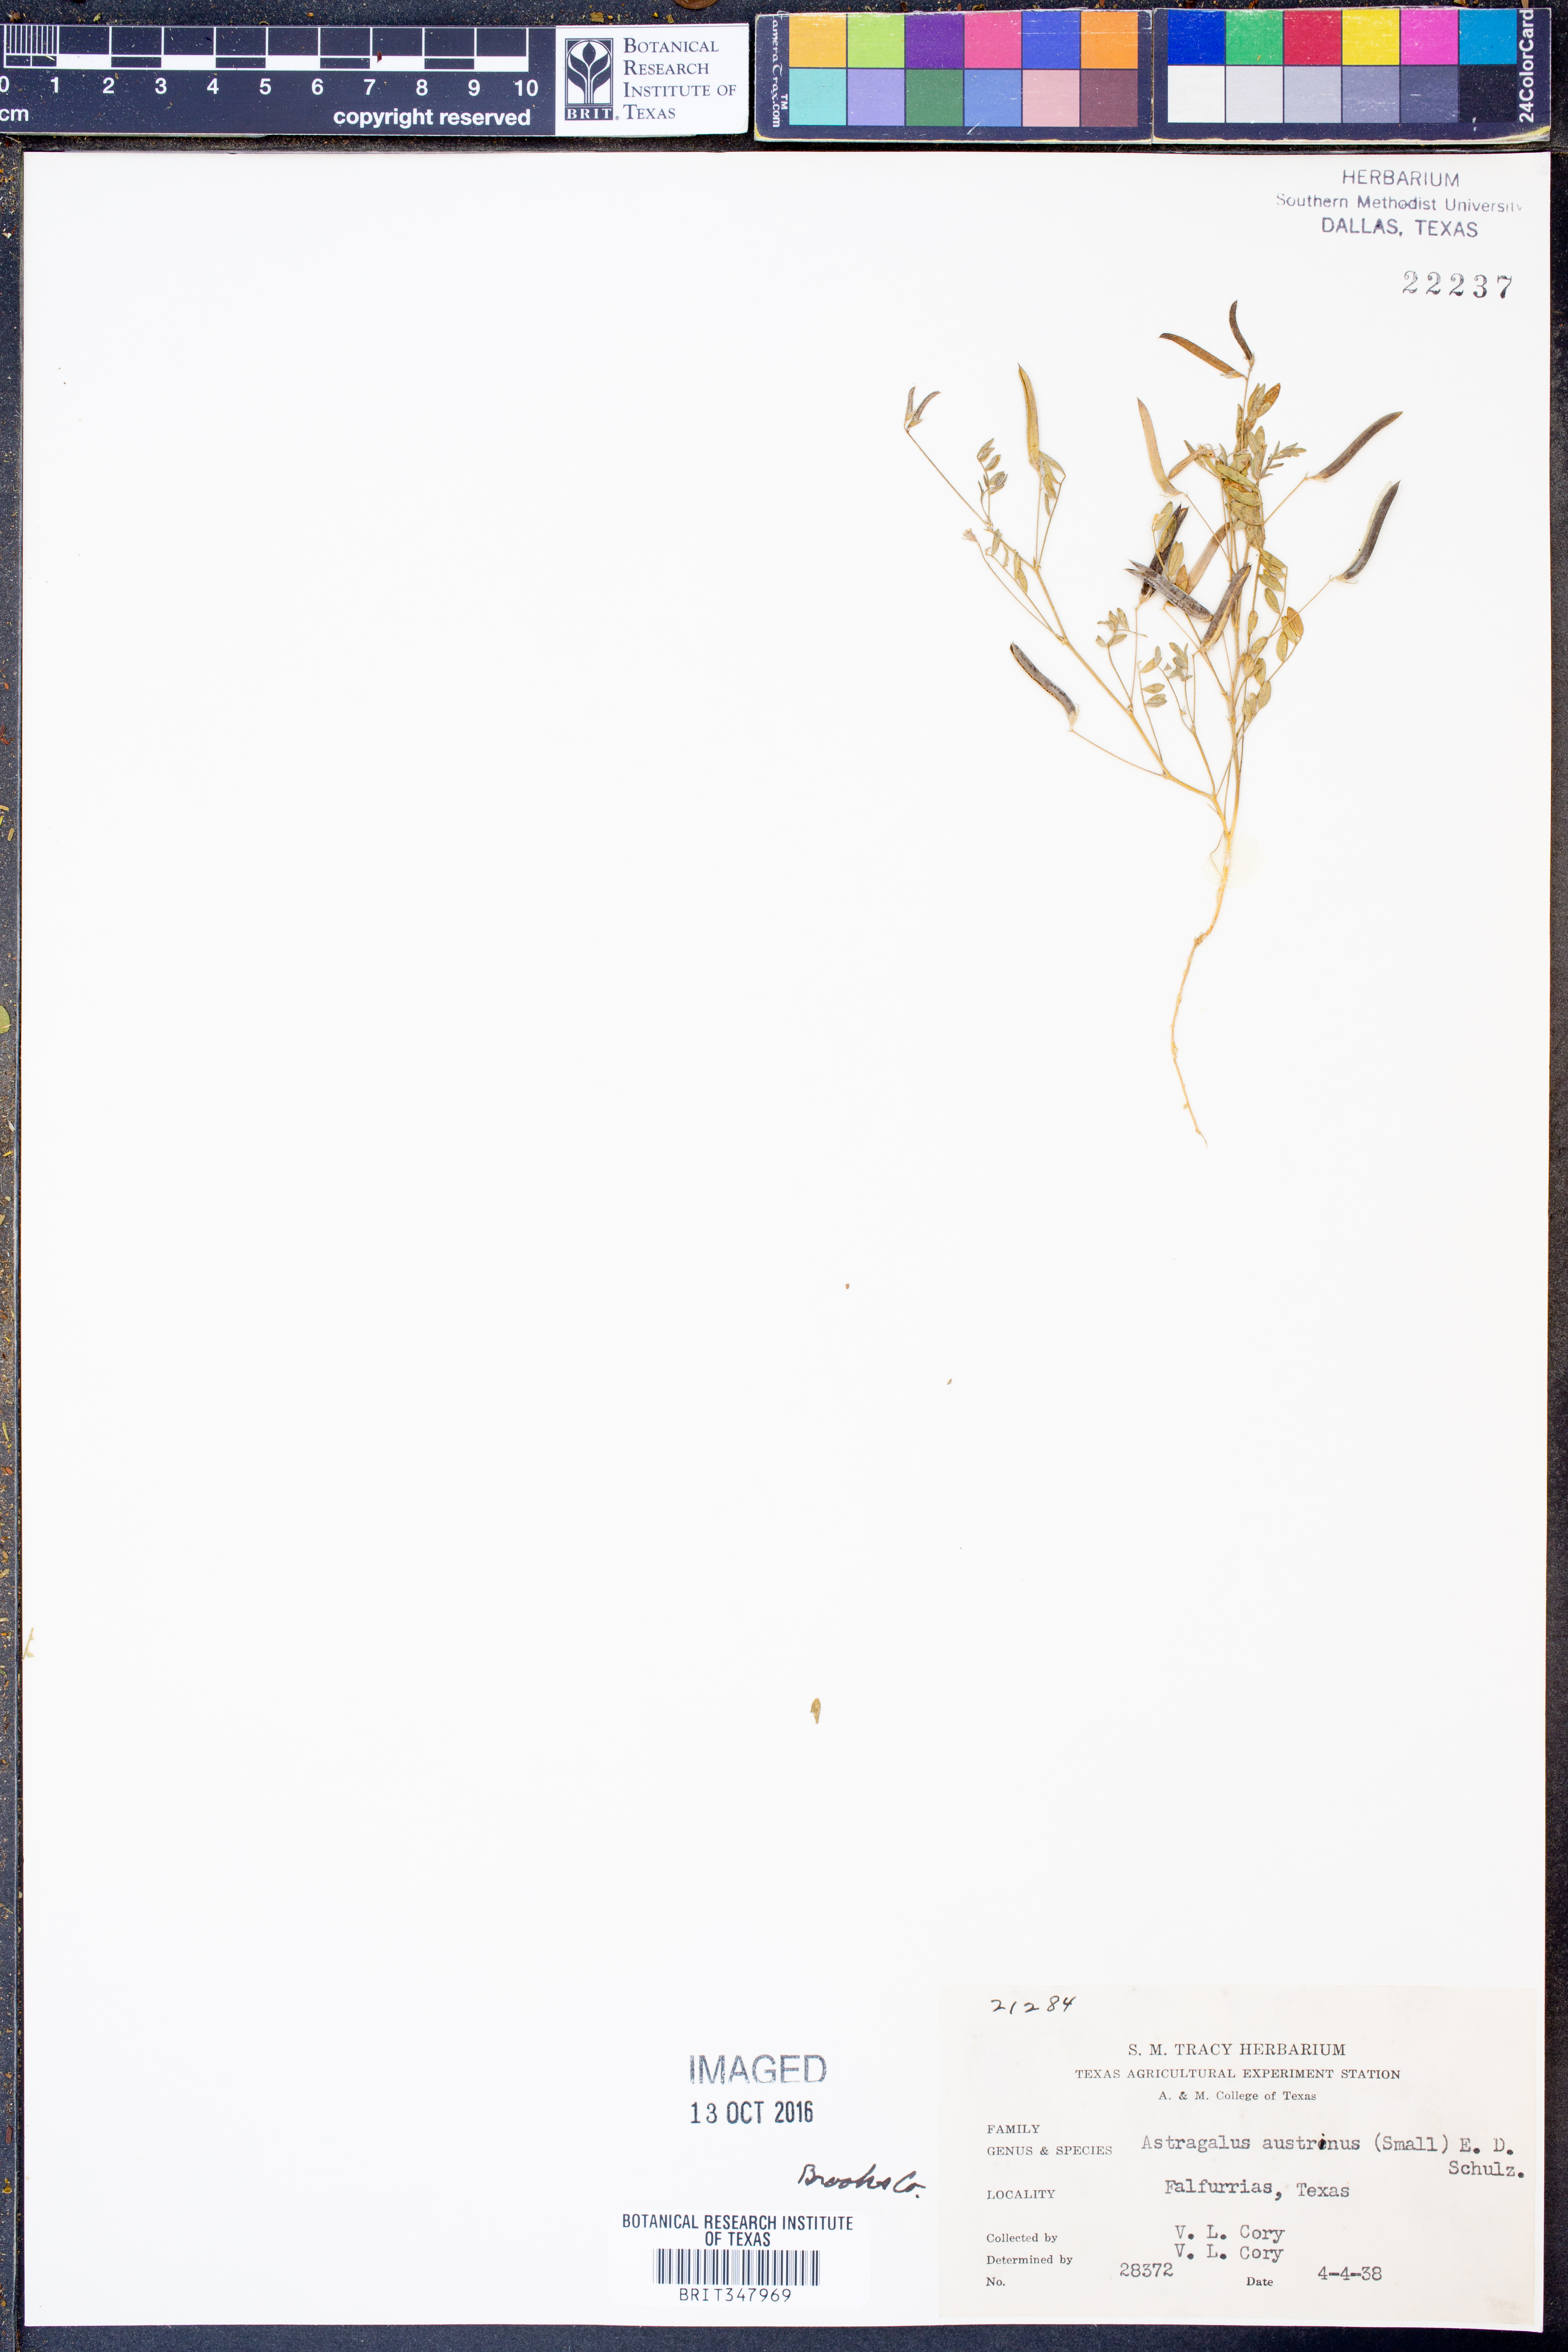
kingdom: Plantae
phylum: Tracheophyta
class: Magnoliopsida
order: Fabales
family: Fabaceae
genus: Astragalus
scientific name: Astragalus nuttallianus
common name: Smallflowered milkvetch
